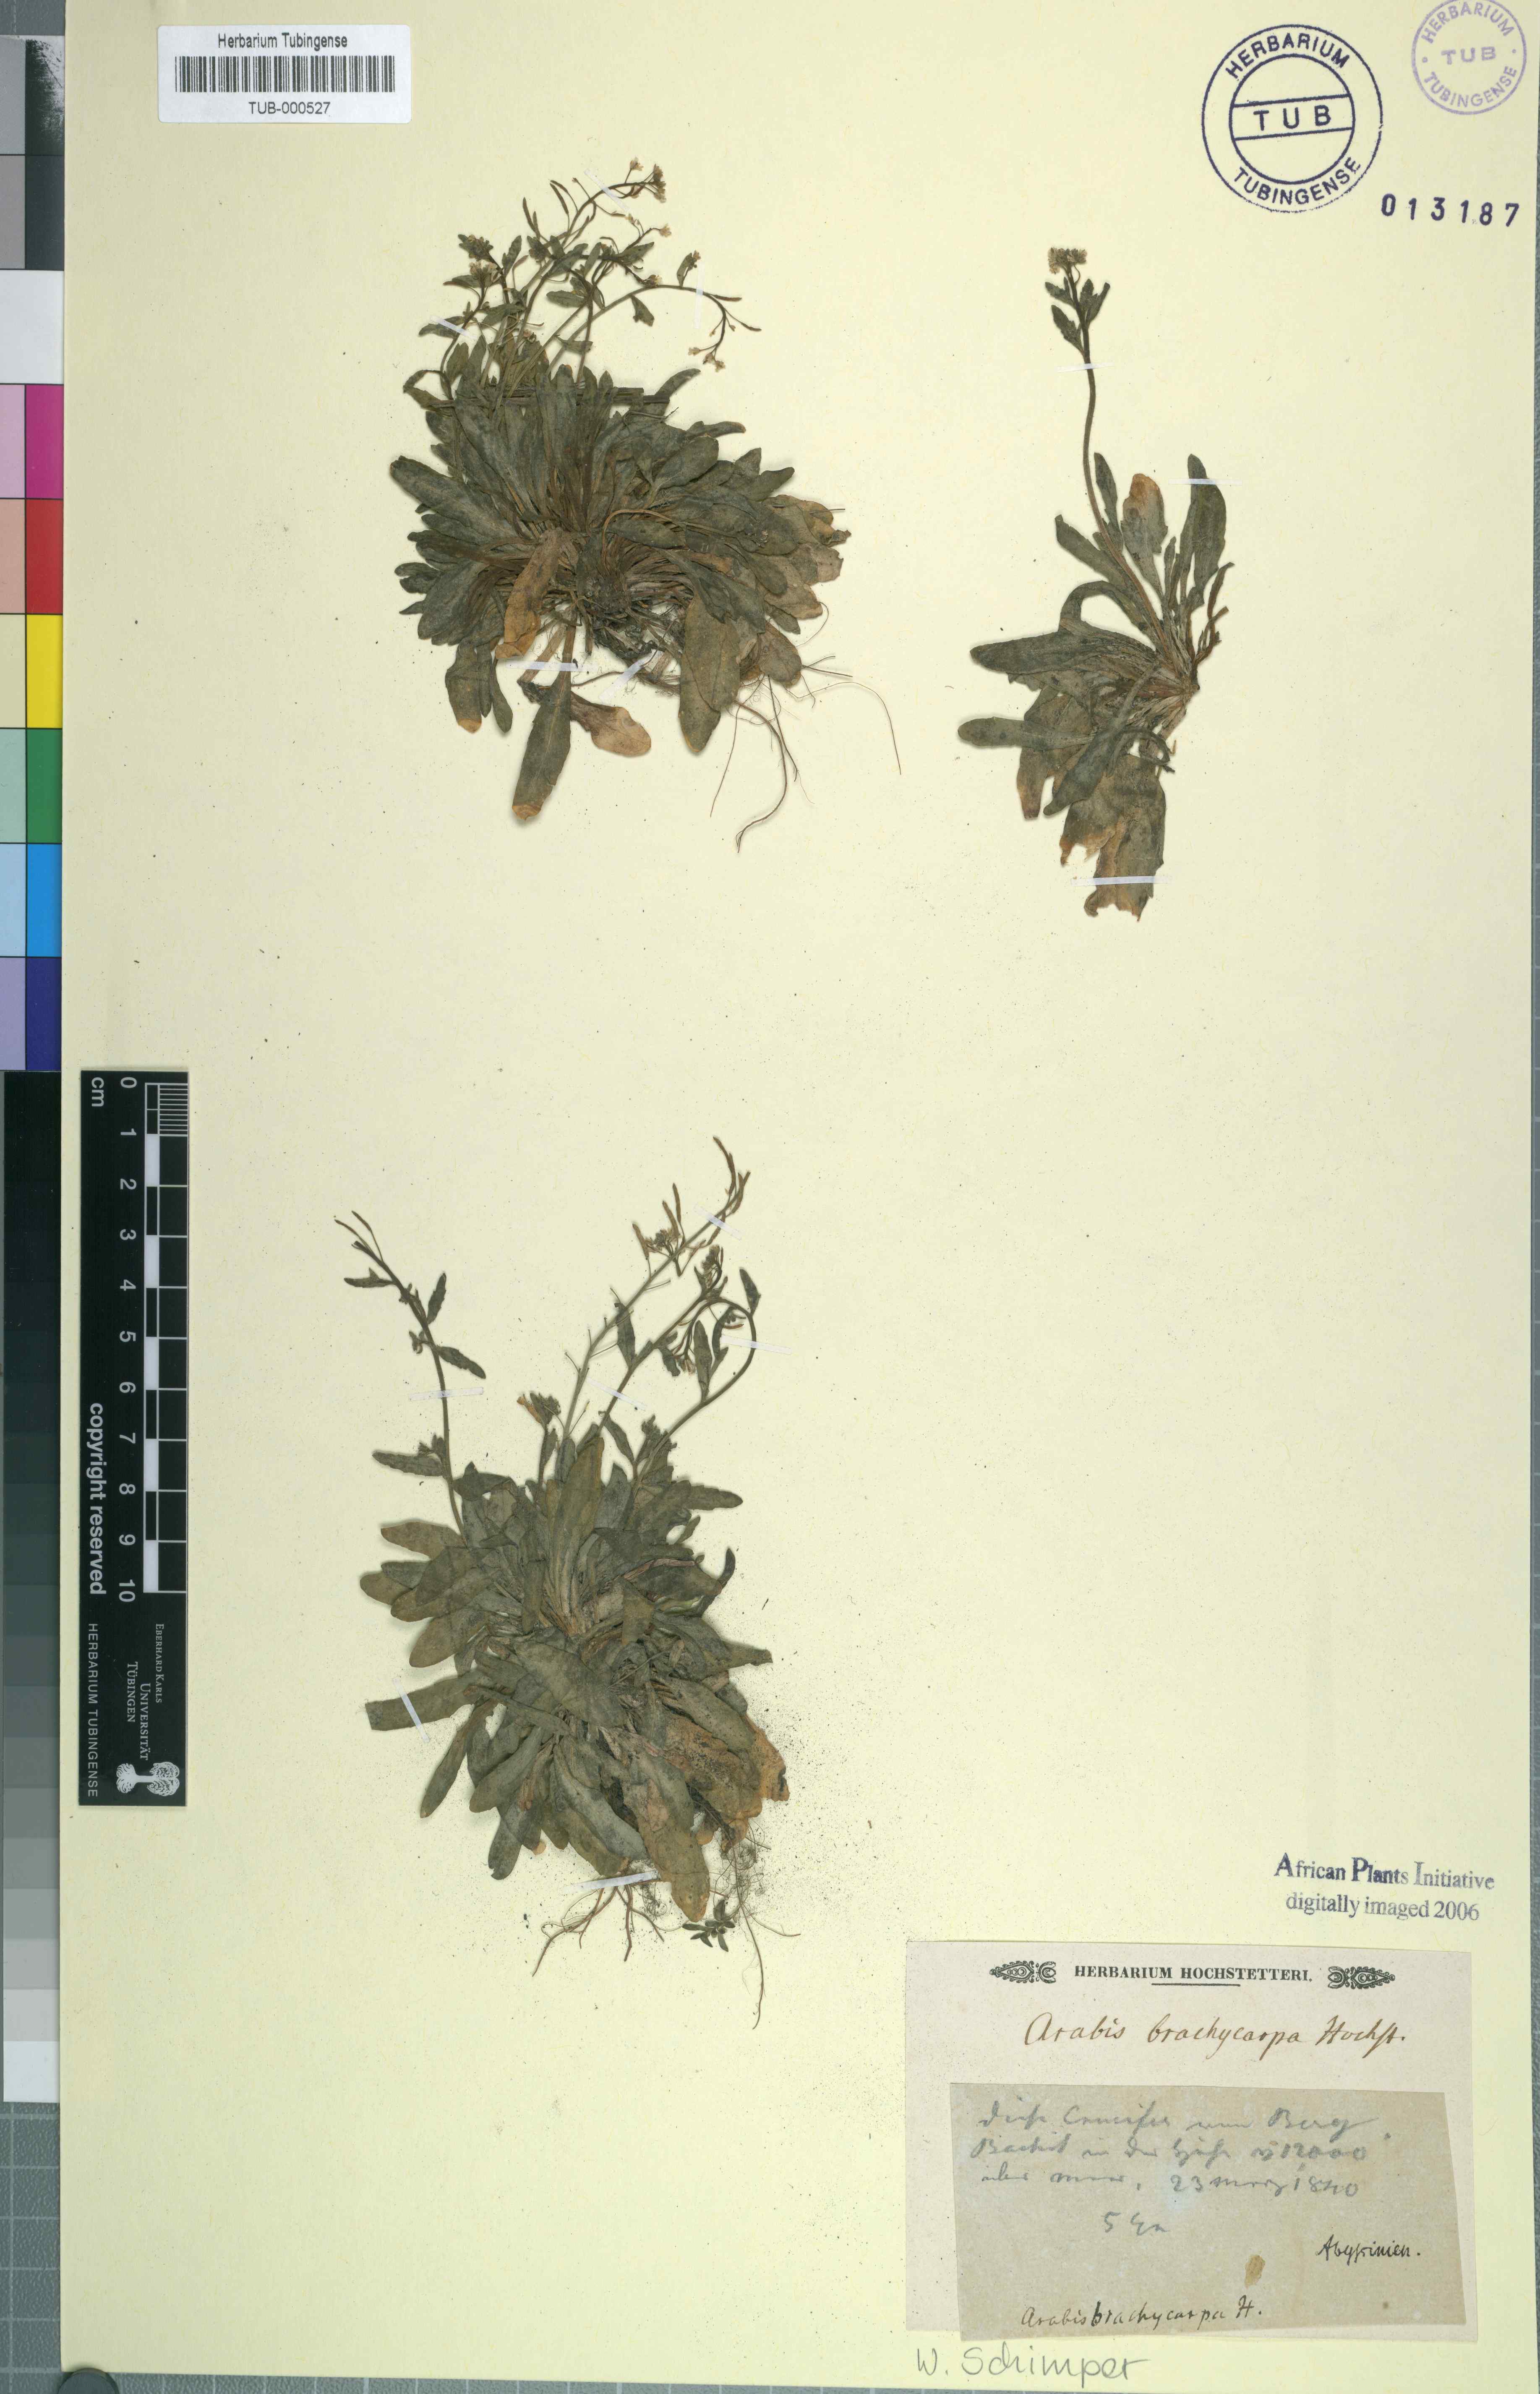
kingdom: Plantae
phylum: Tracheophyta
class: Magnoliopsida
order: Brassicales
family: Brassicaceae
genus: Arabis
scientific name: Arabis brachycarpa
